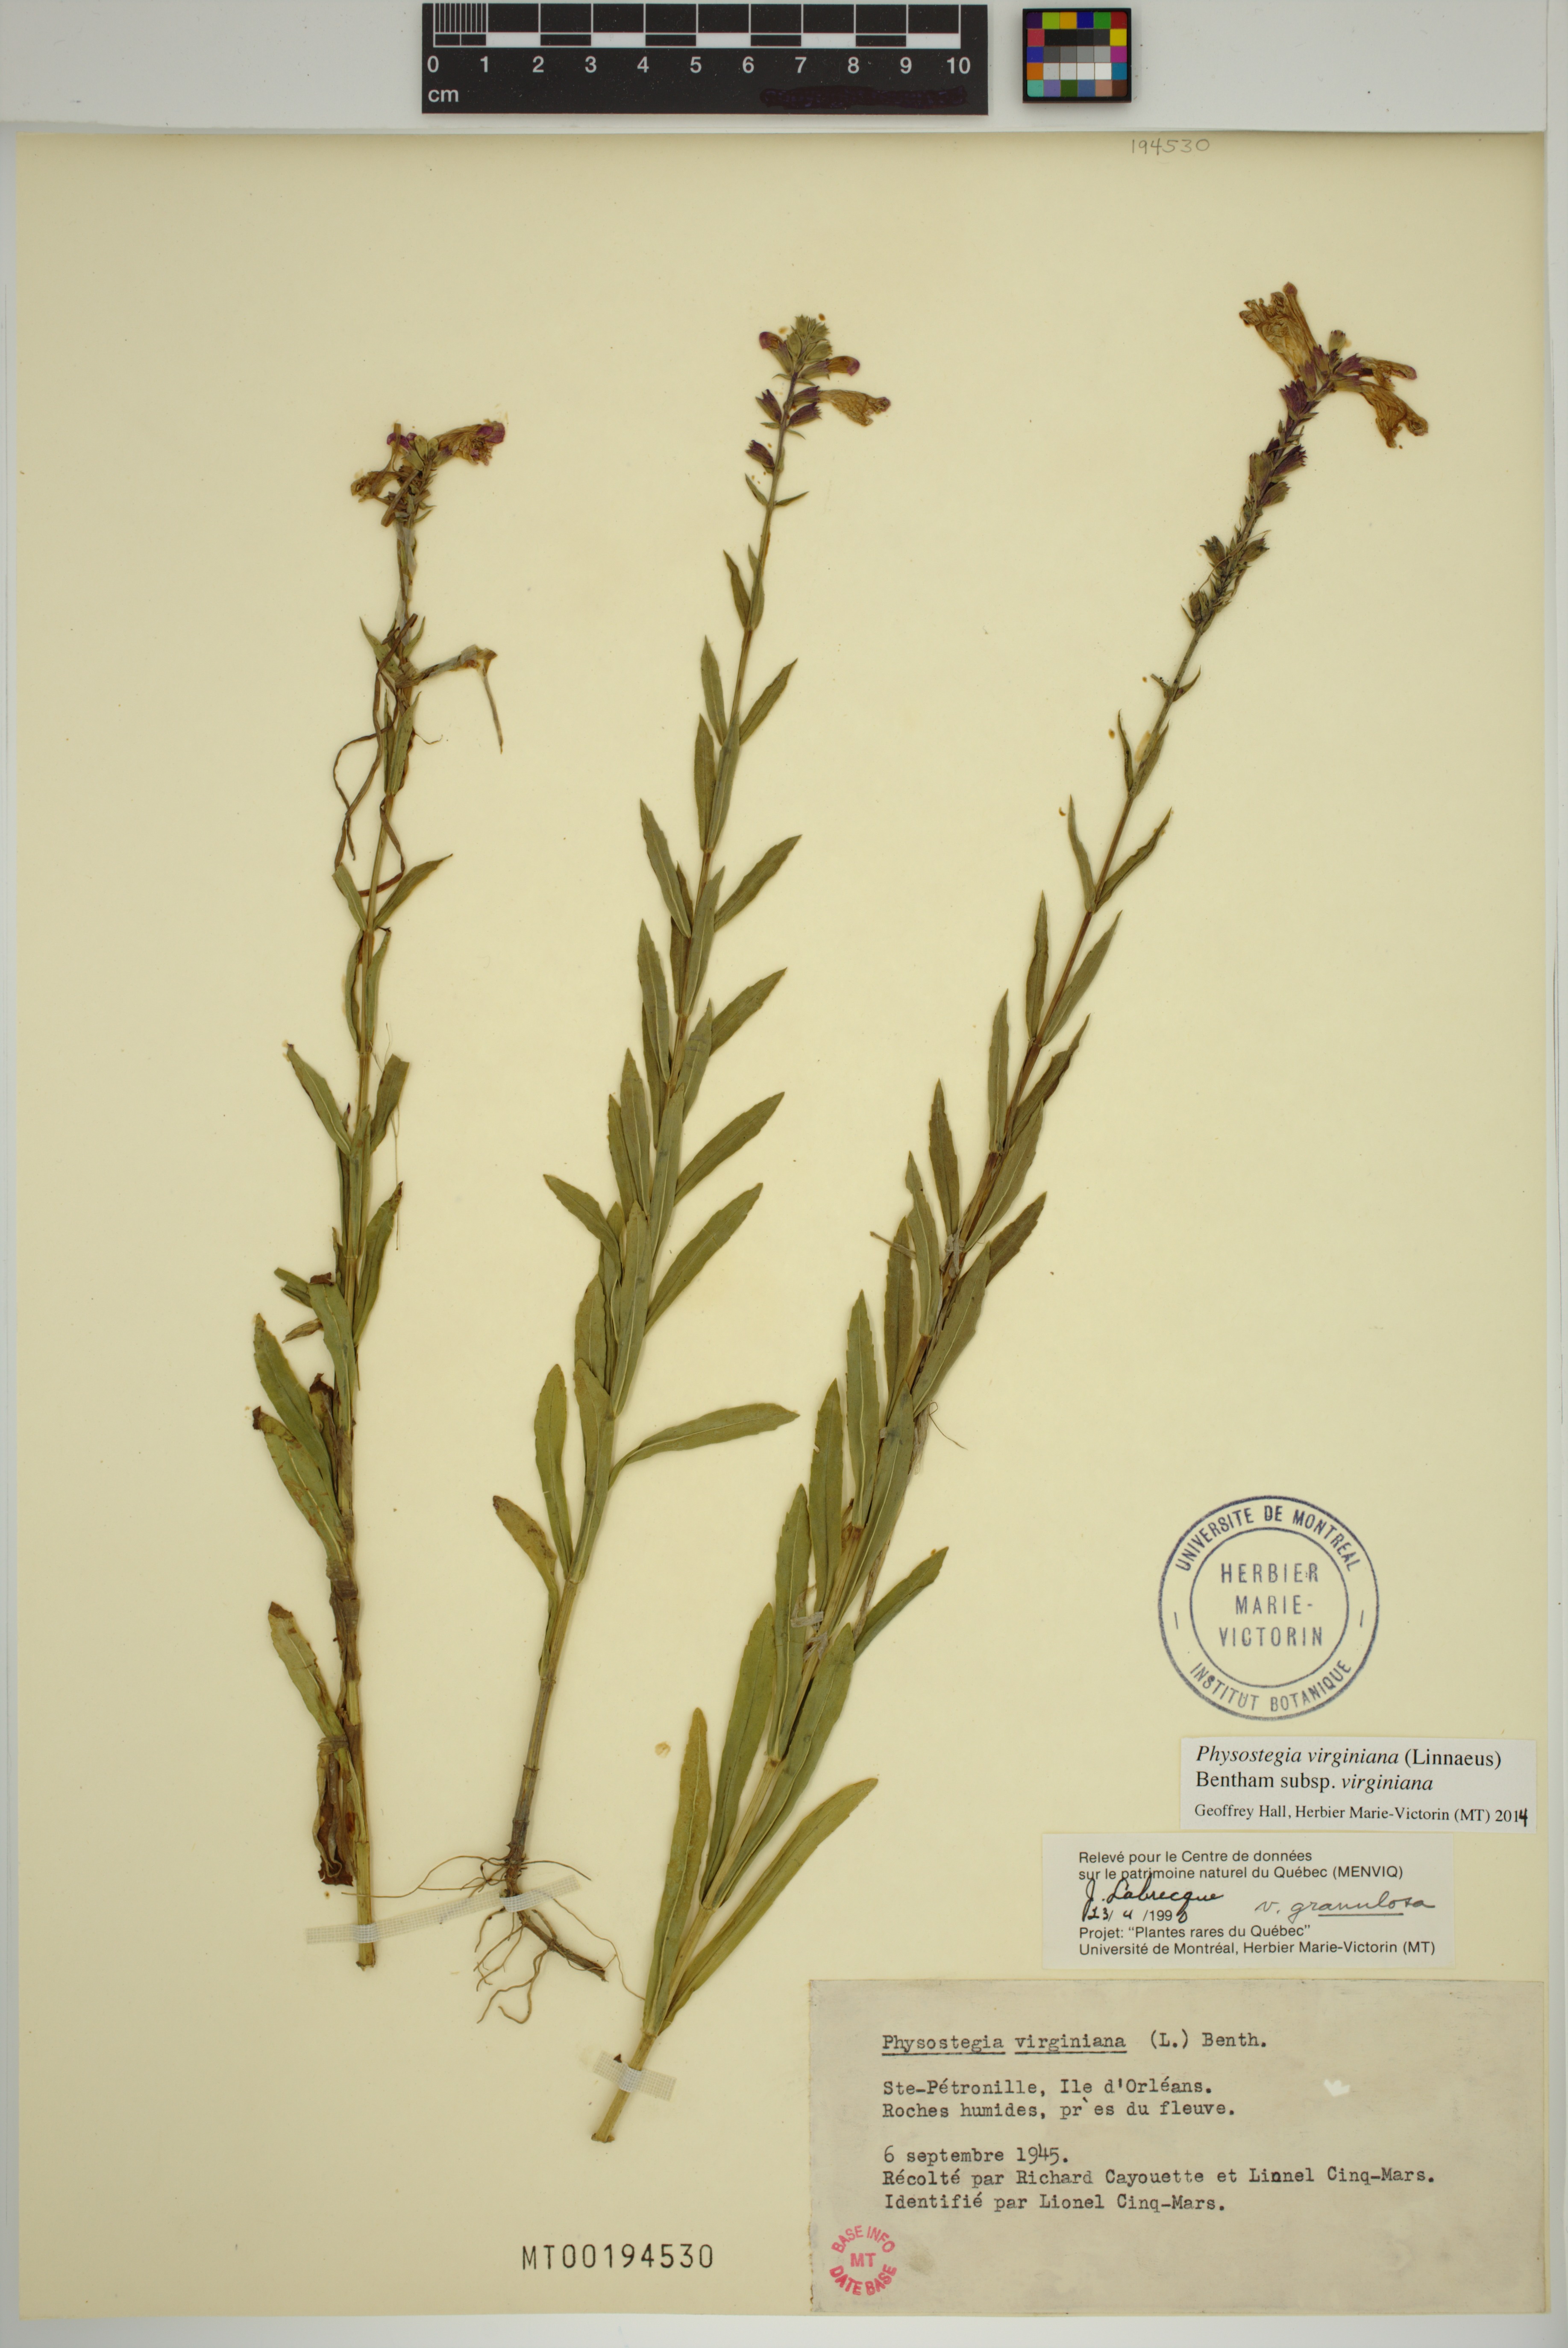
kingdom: Plantae
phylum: Tracheophyta
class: Magnoliopsida
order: Lamiales
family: Lamiaceae
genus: Physostegia
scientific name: Physostegia virginiana
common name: Obedient-plant
